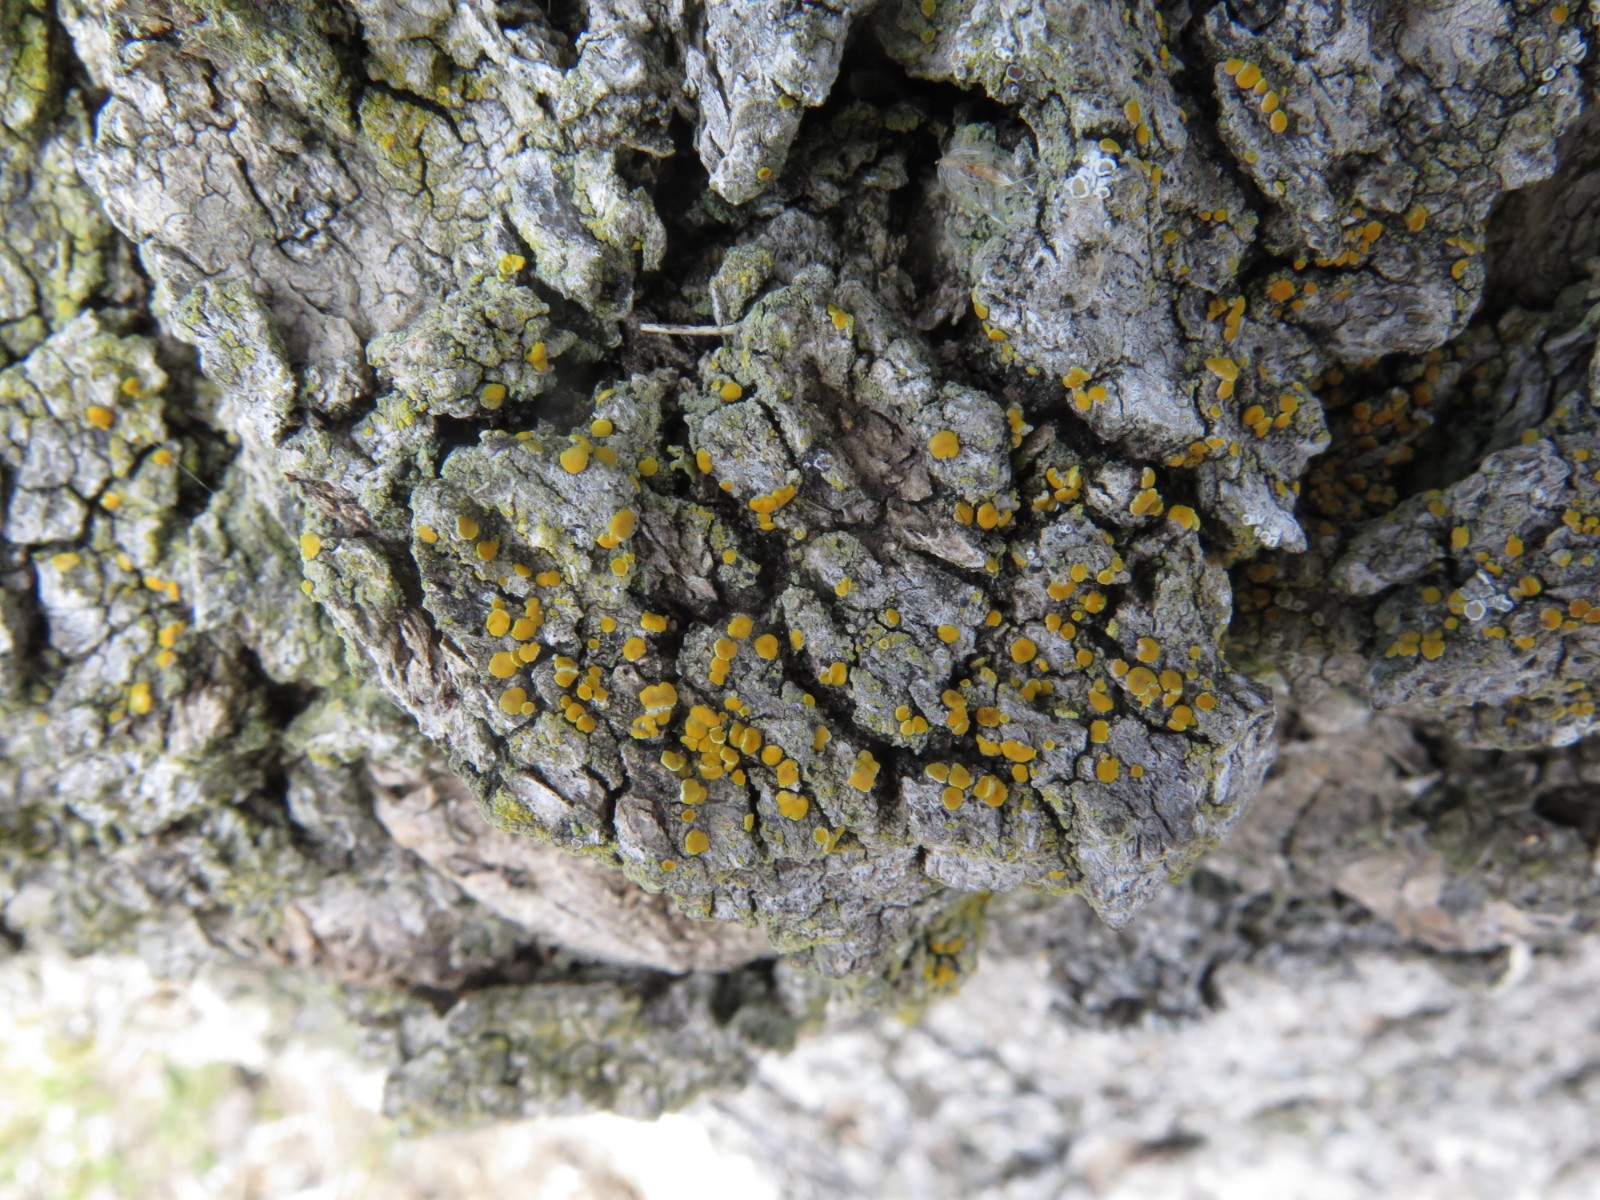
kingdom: Fungi
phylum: Ascomycota
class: Lecanoromycetes
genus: Scythioria
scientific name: Scythioria phlogina
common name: flammet orangelav
